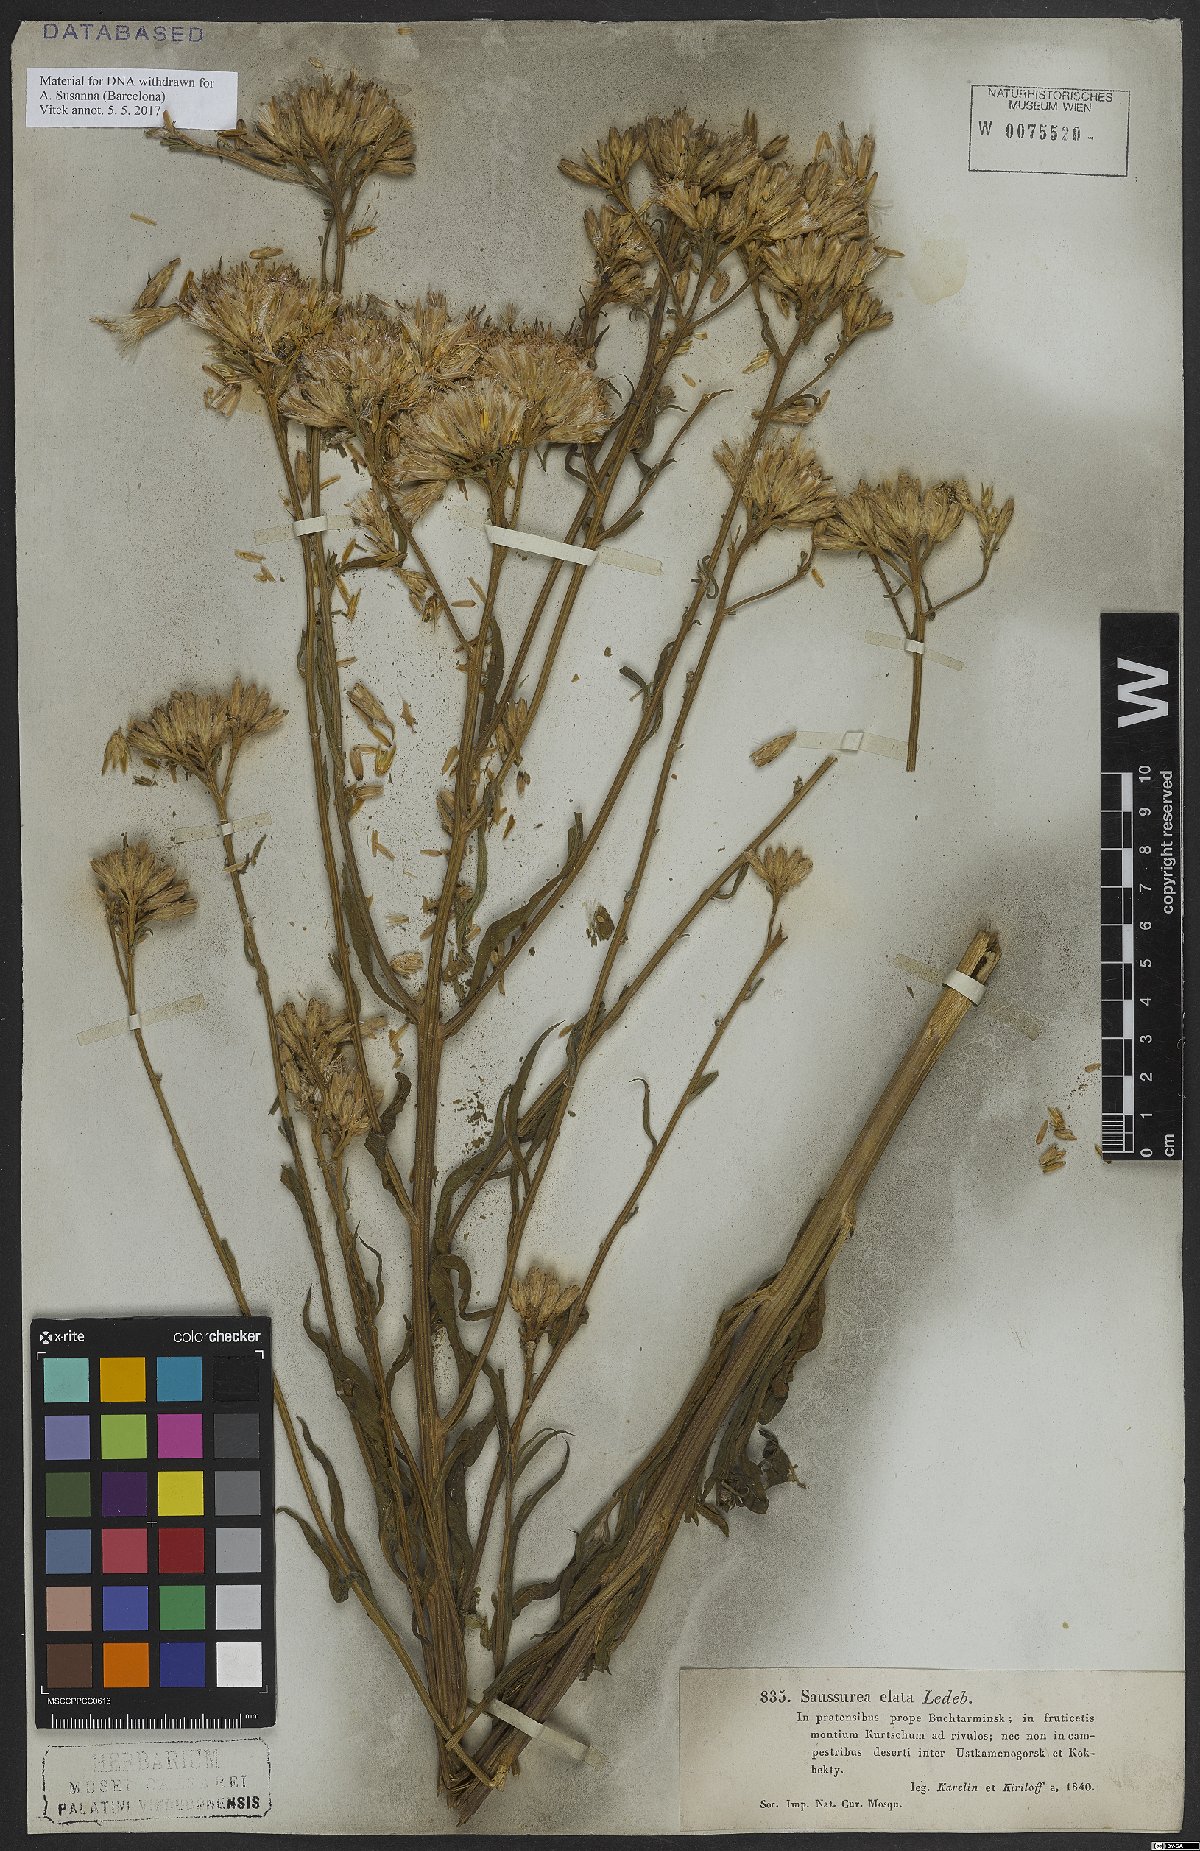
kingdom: Plantae
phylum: Tracheophyta
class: Magnoliopsida
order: Asterales
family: Asteraceae
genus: Saussurea
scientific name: Saussurea elata
